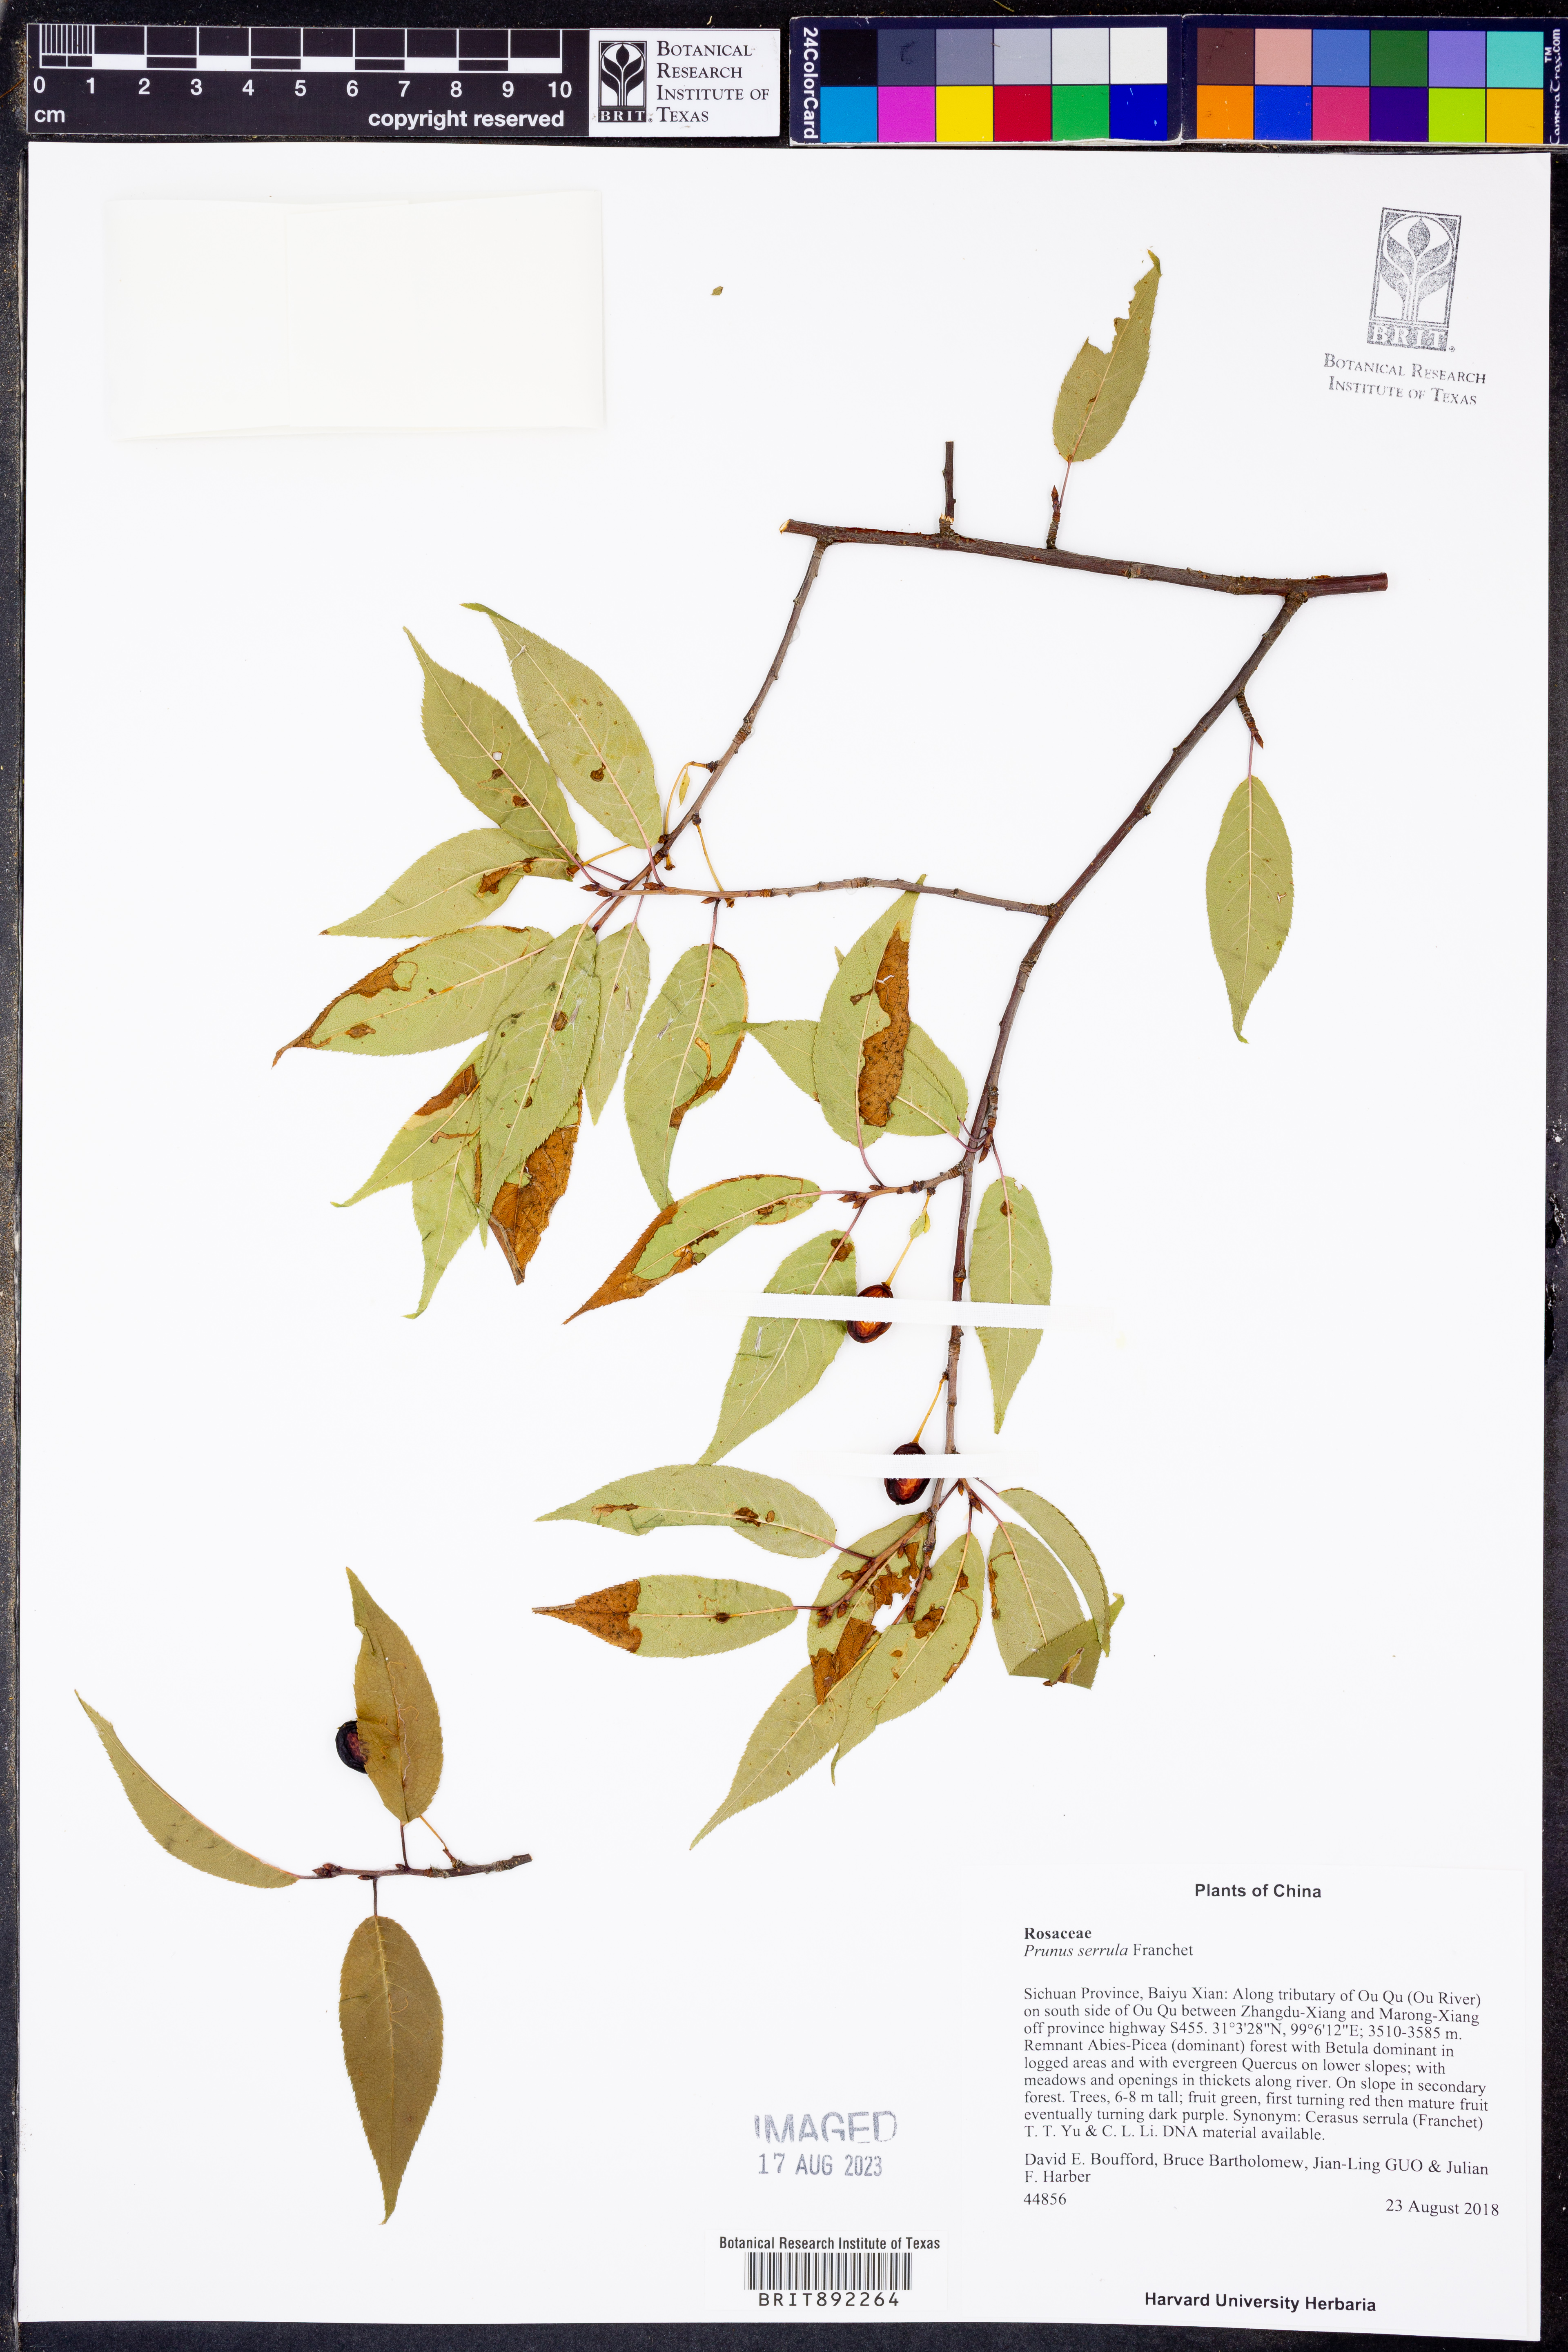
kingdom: Plantae
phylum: Tracheophyta
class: Magnoliopsida
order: Rosales
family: Rosaceae
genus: Prunus
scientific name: Prunus serrula
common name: Birchbark cherry
